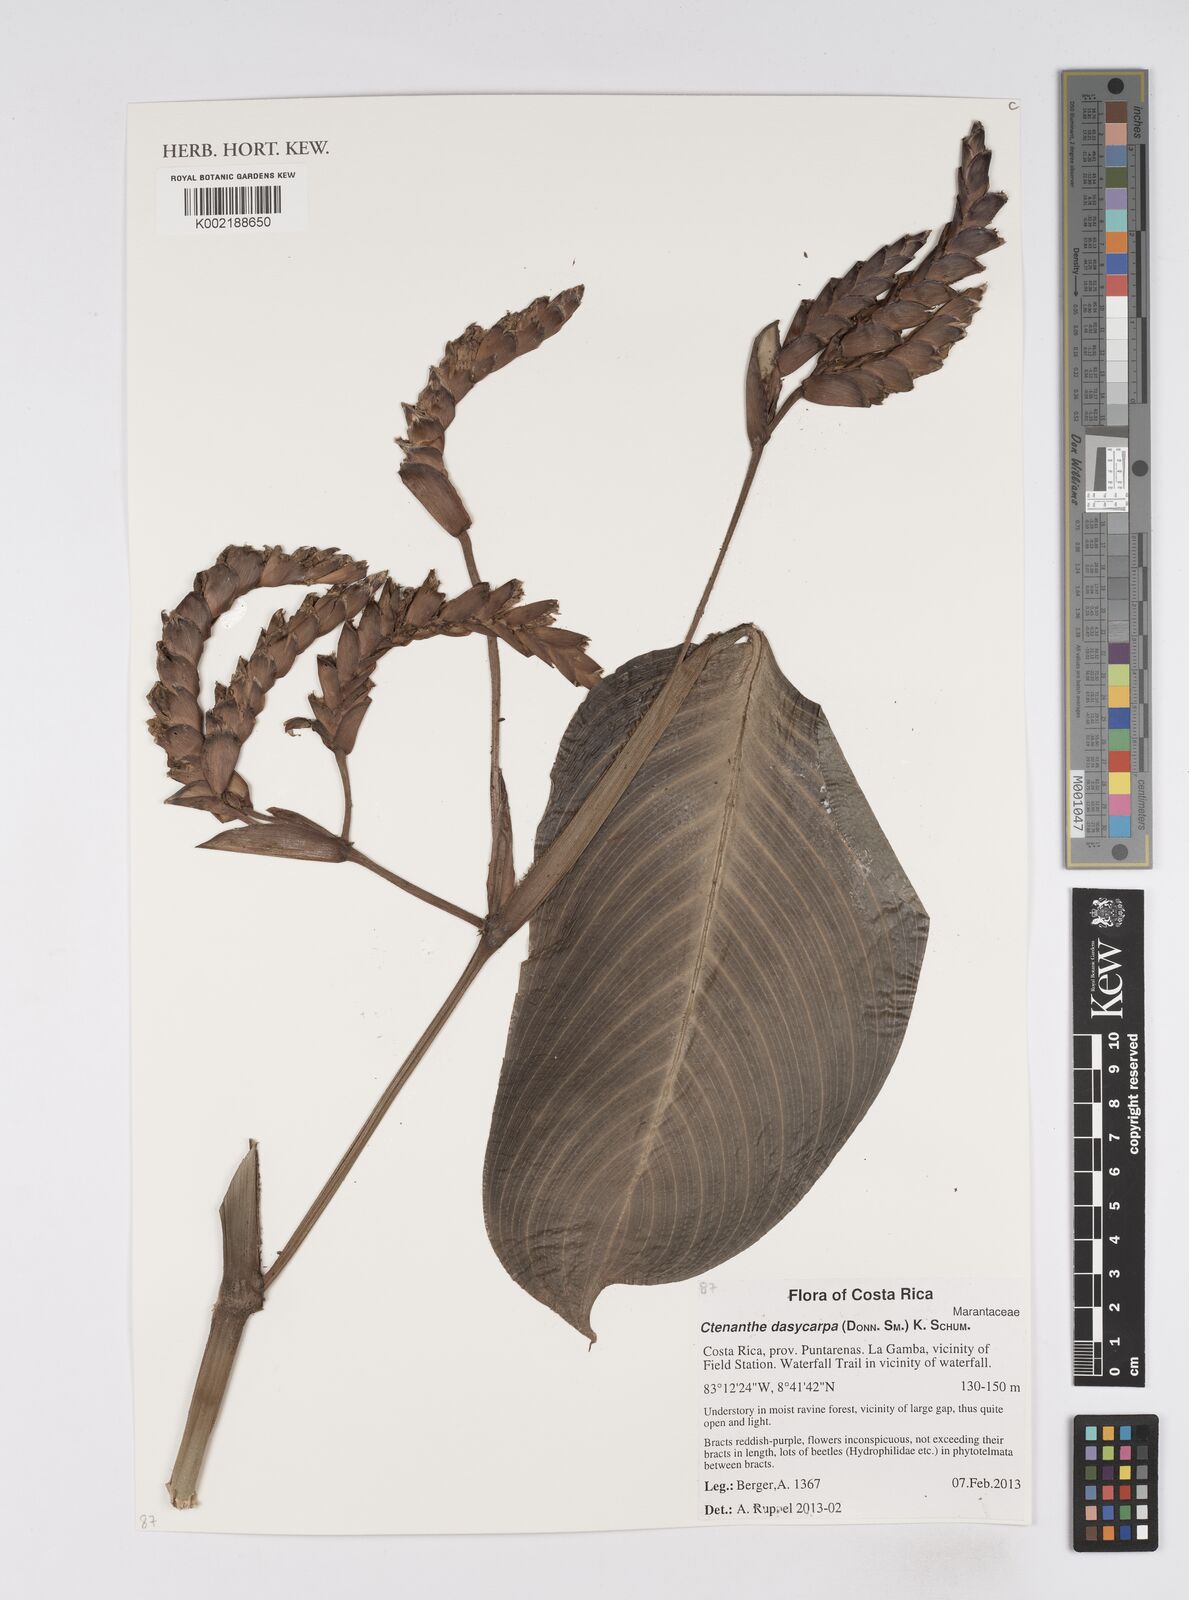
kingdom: Plantae
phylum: Tracheophyta
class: Liliopsida
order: Zingiberales
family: Marantaceae
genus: Ctenanthe
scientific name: Ctenanthe dasycarpa
